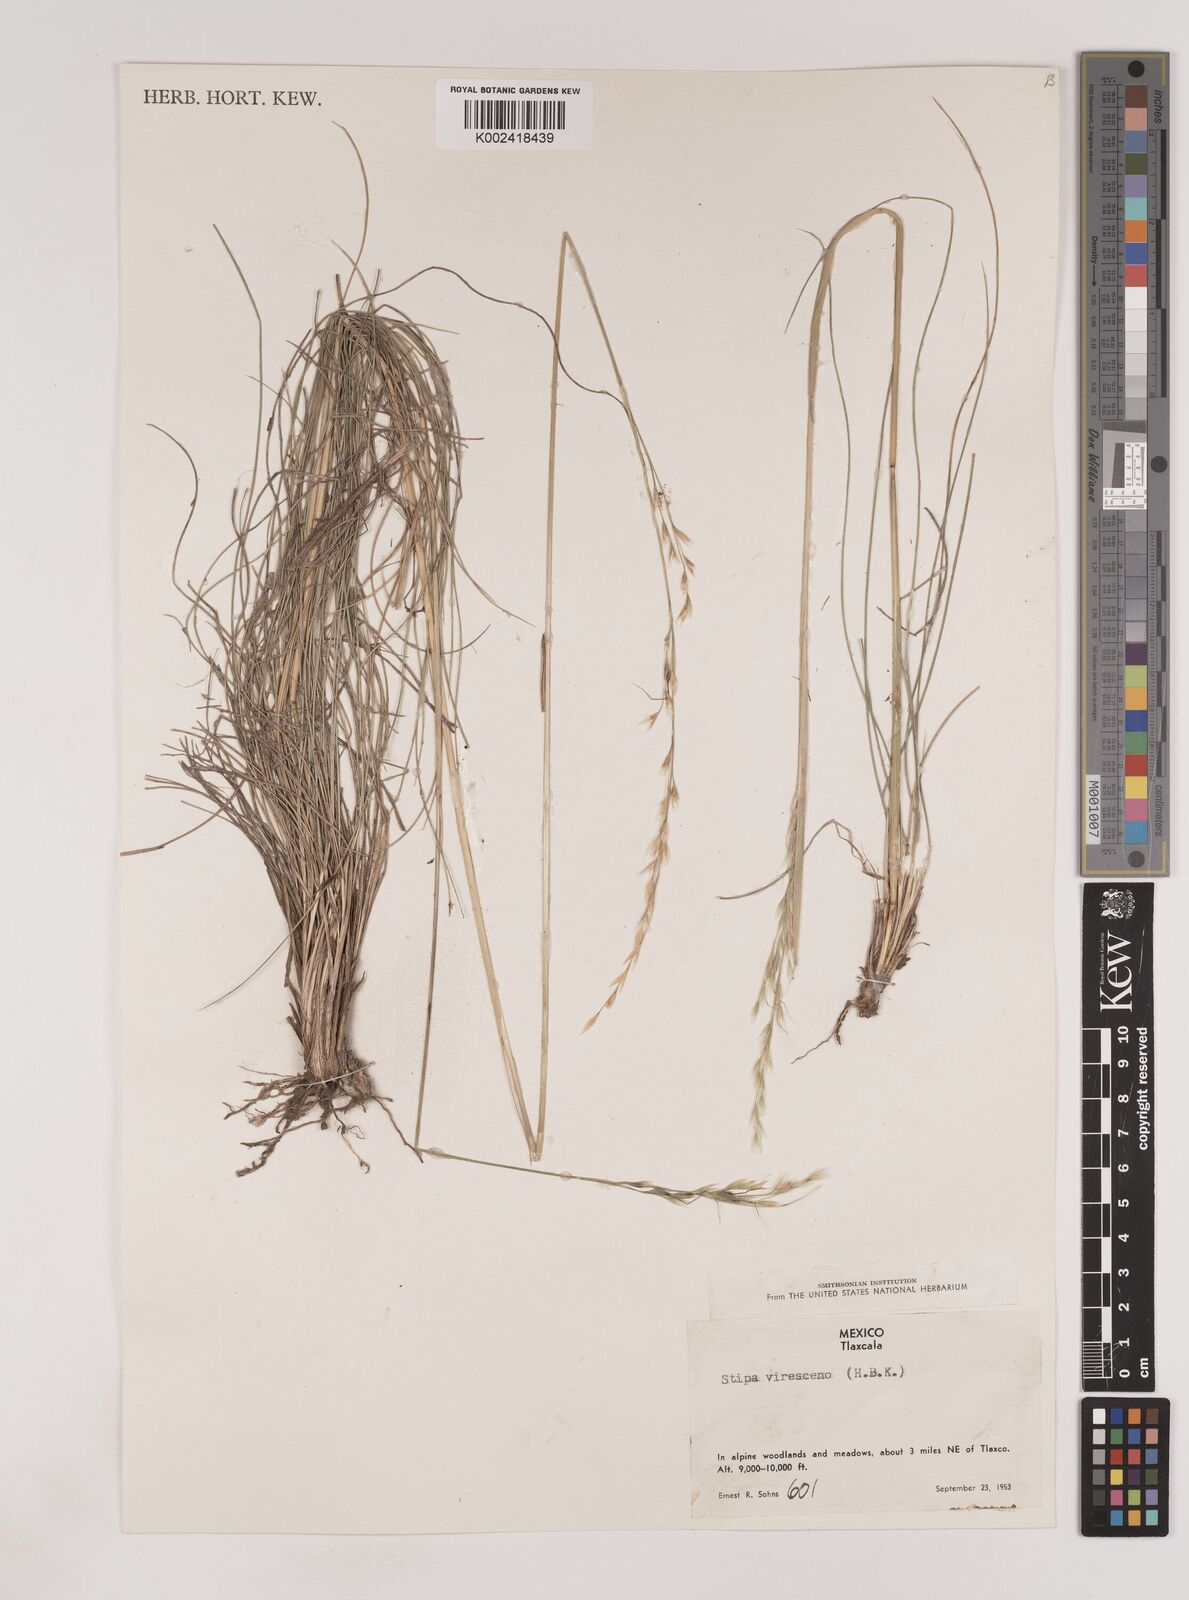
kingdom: Plantae
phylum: Tracheophyta
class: Liliopsida
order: Poales
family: Poaceae
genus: Piptochaetium
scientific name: Piptochaetium virescens
